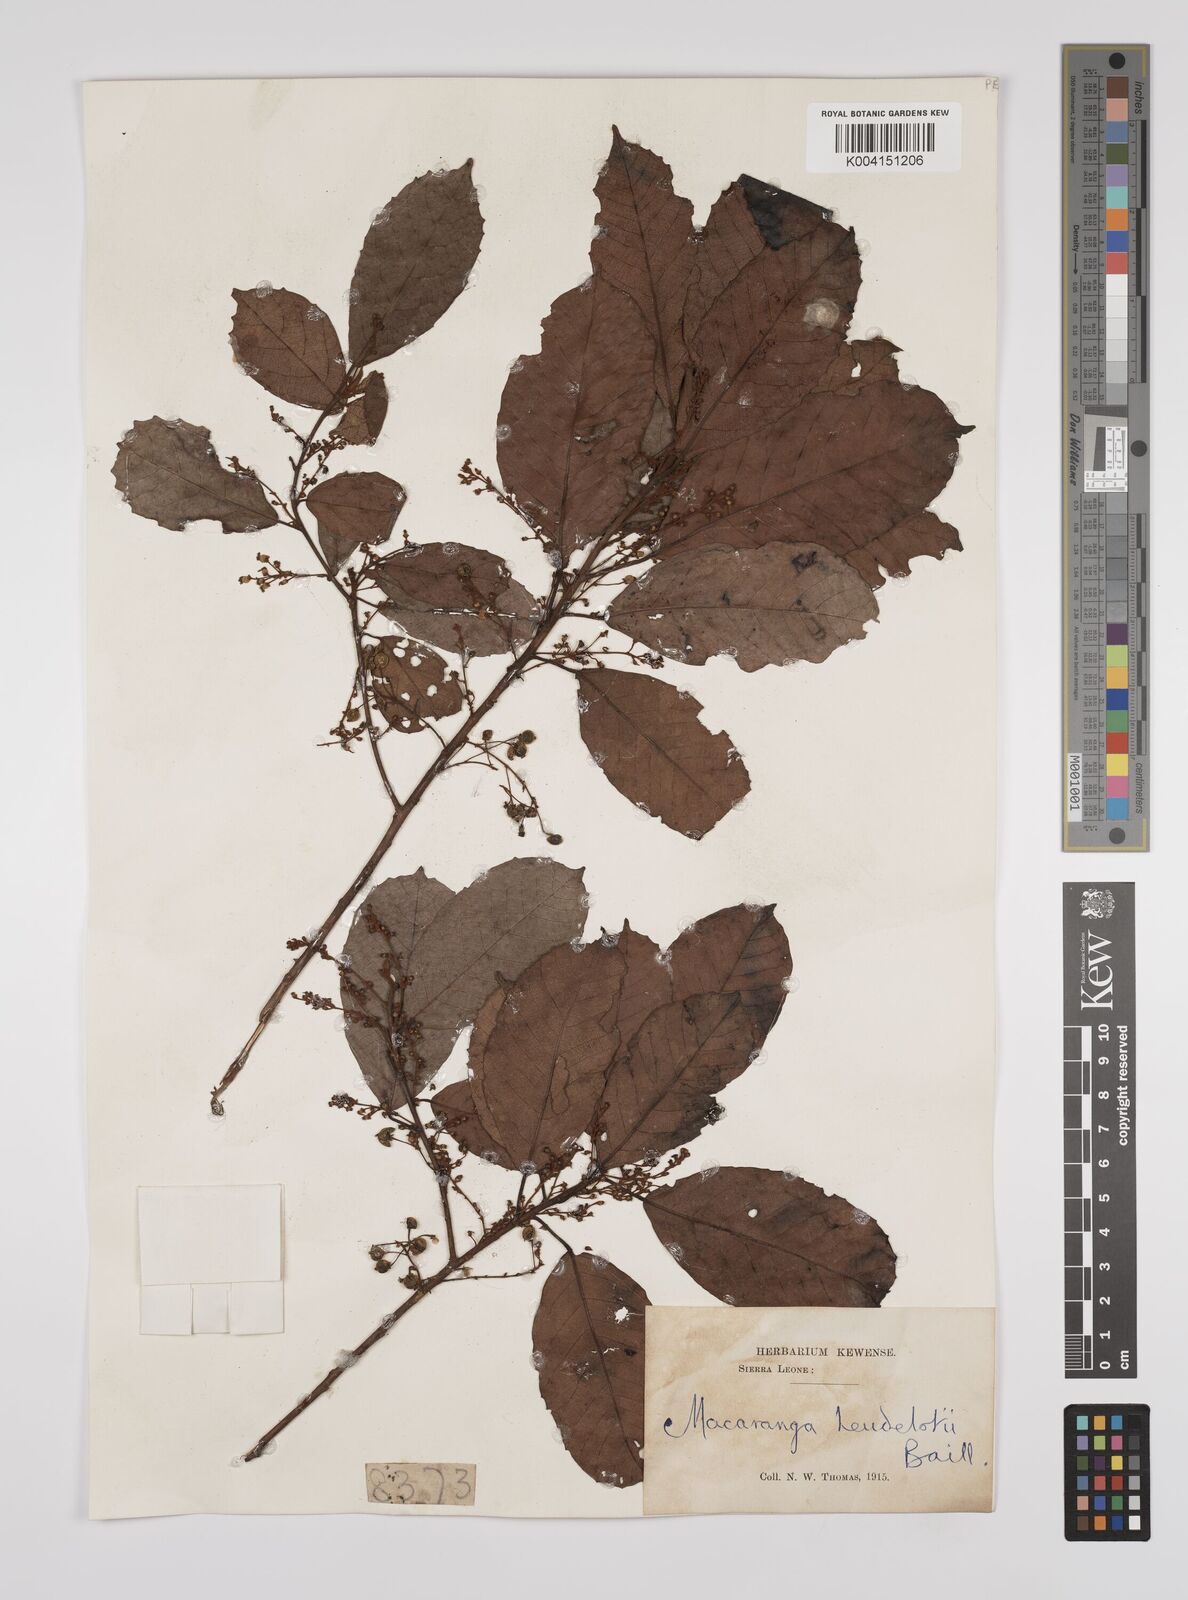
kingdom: Plantae
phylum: Tracheophyta
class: Magnoliopsida
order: Malpighiales
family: Euphorbiaceae
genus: Macaranga
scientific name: Macaranga heudelotii
